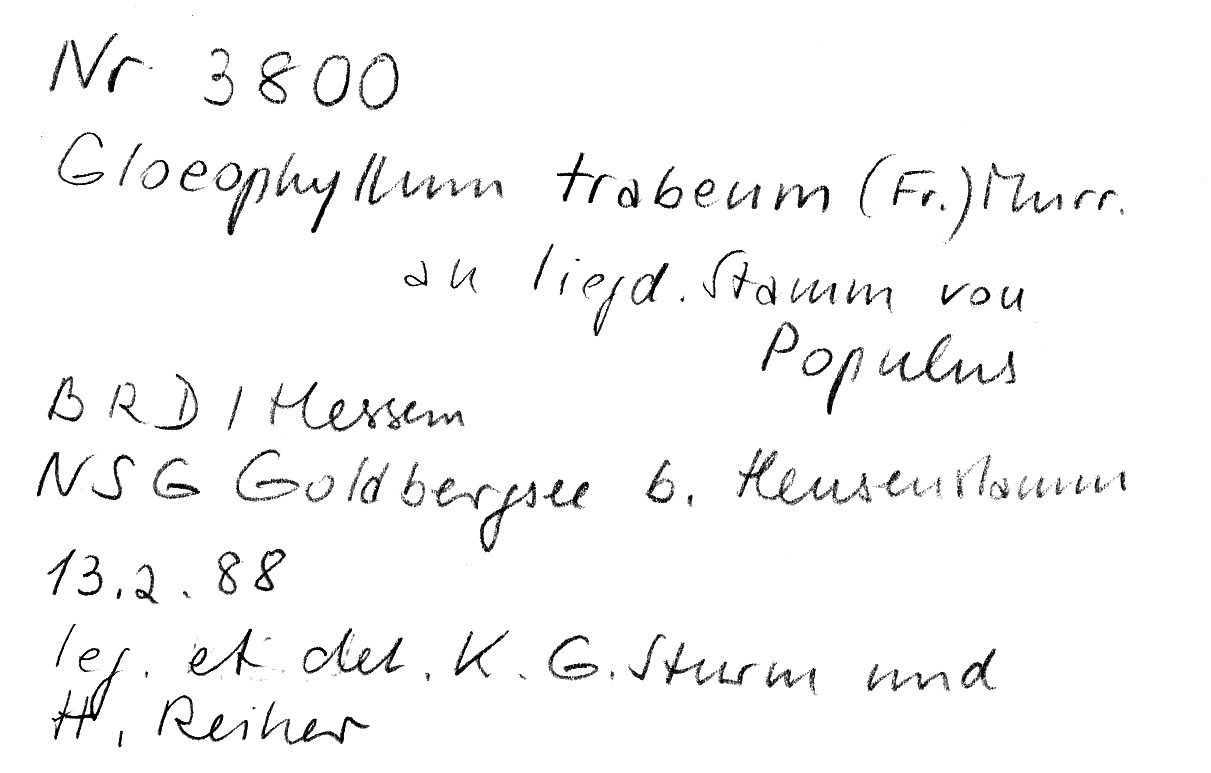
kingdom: Plantae
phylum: Tracheophyta
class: Magnoliopsida
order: Malpighiales
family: Salicaceae
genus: Populus
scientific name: Populus
